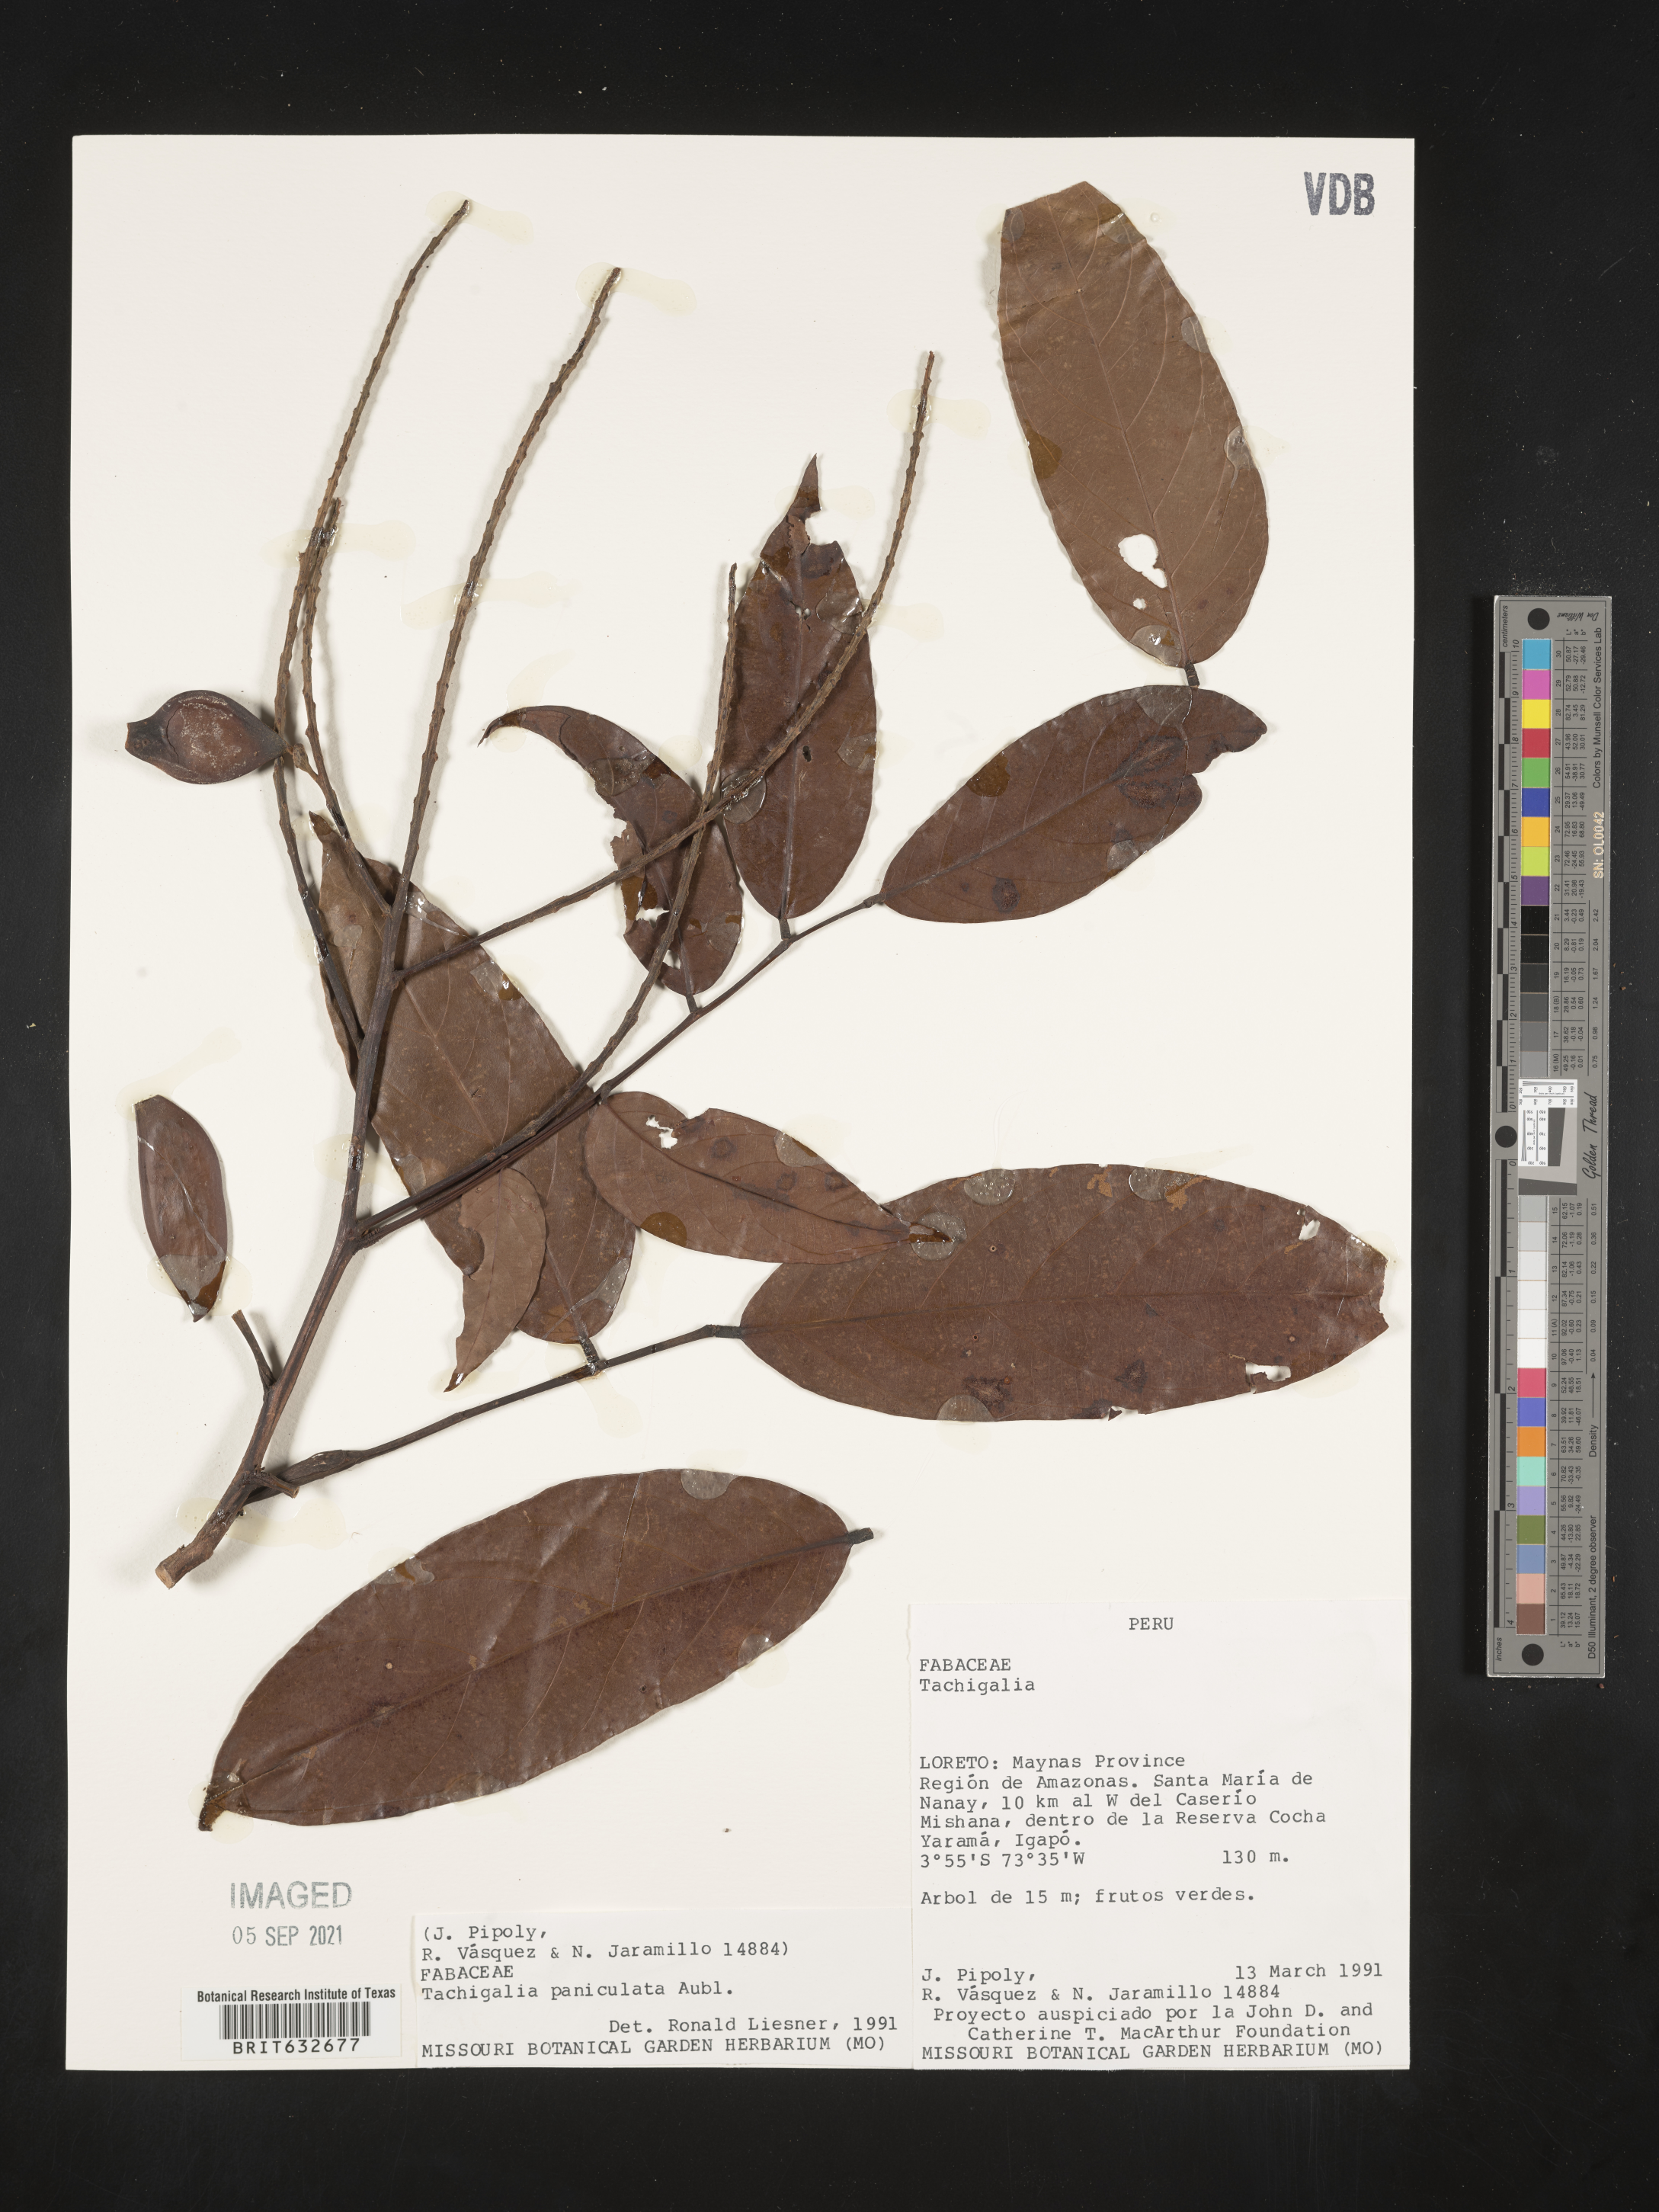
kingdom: Plantae
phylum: Tracheophyta
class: Magnoliopsida
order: Fabales
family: Fabaceae
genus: Tachigali
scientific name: Tachigali
